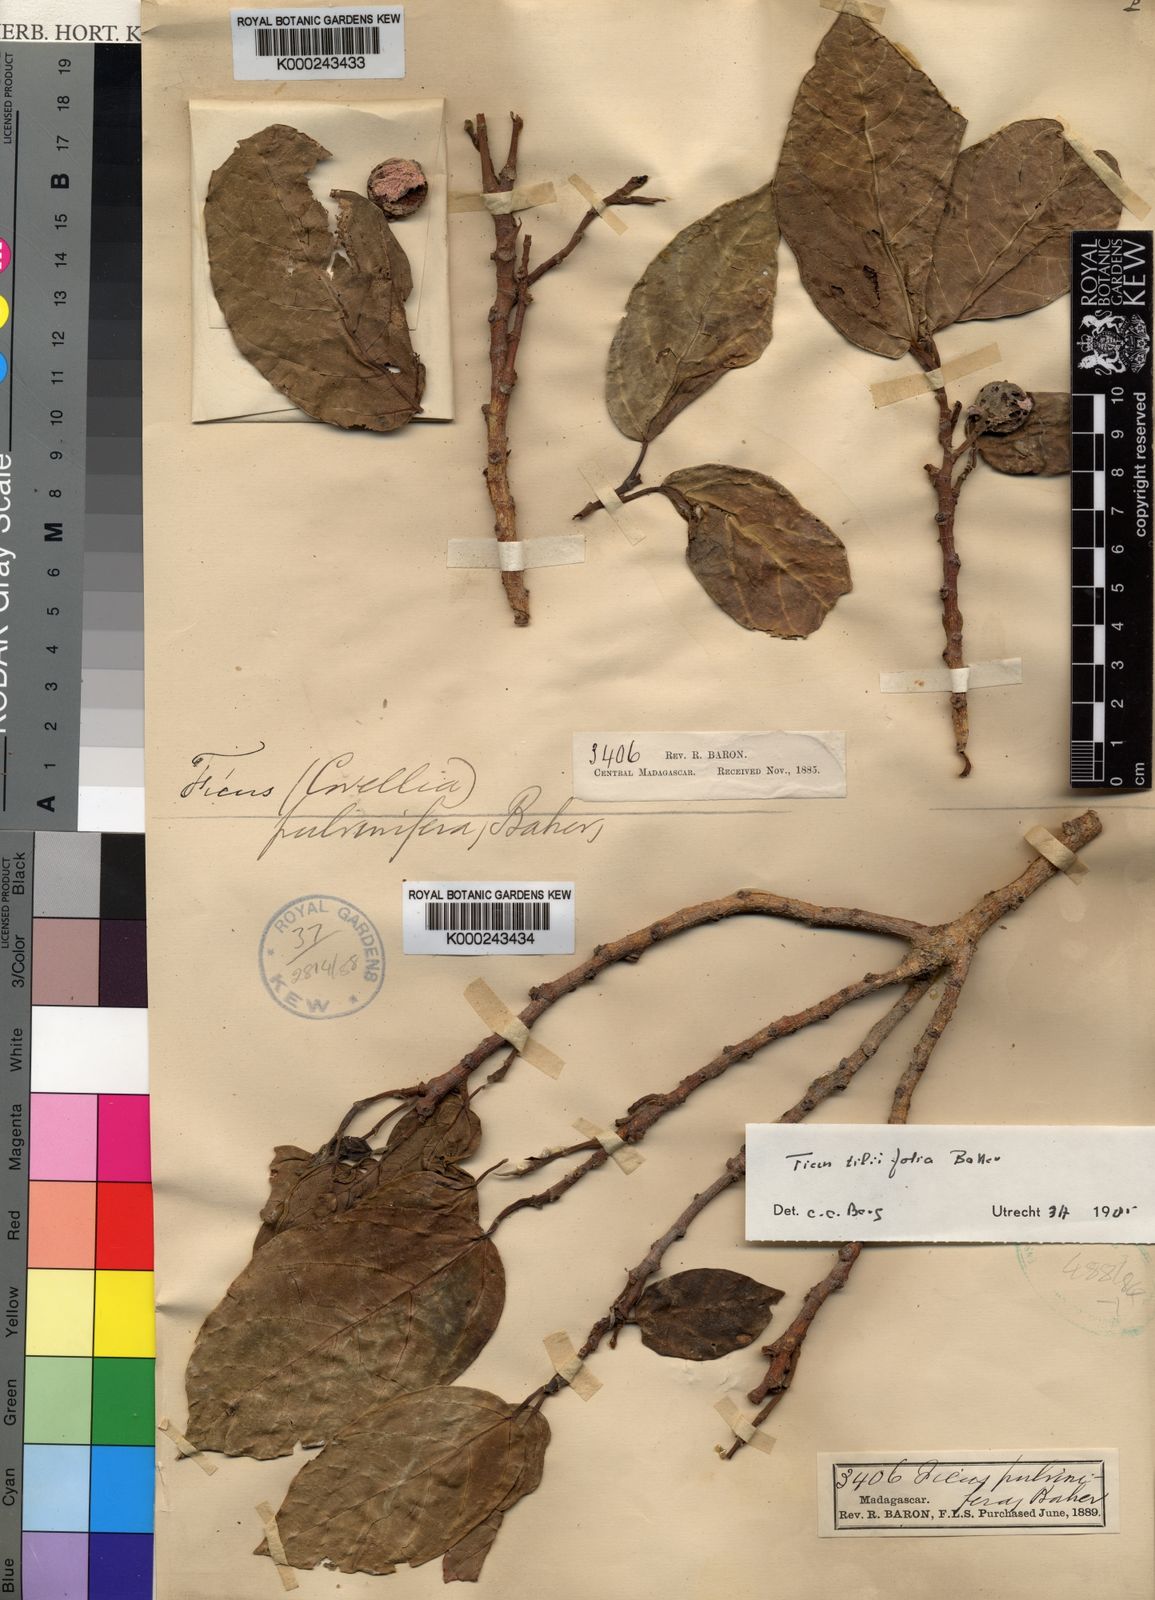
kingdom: Plantae
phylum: Tracheophyta
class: Magnoliopsida
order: Rosales
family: Moraceae
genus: Ficus
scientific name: Ficus tiliifolia
